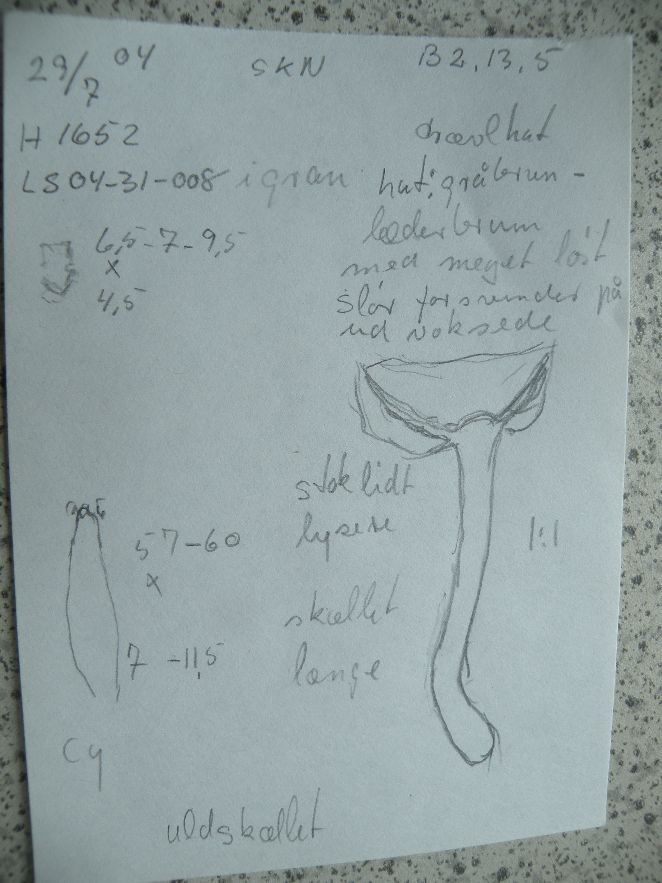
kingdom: Fungi
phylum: Basidiomycota
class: Agaricomycetes
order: Agaricales
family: Inocybaceae
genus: Inocybe
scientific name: Inocybe
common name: trævlhat
